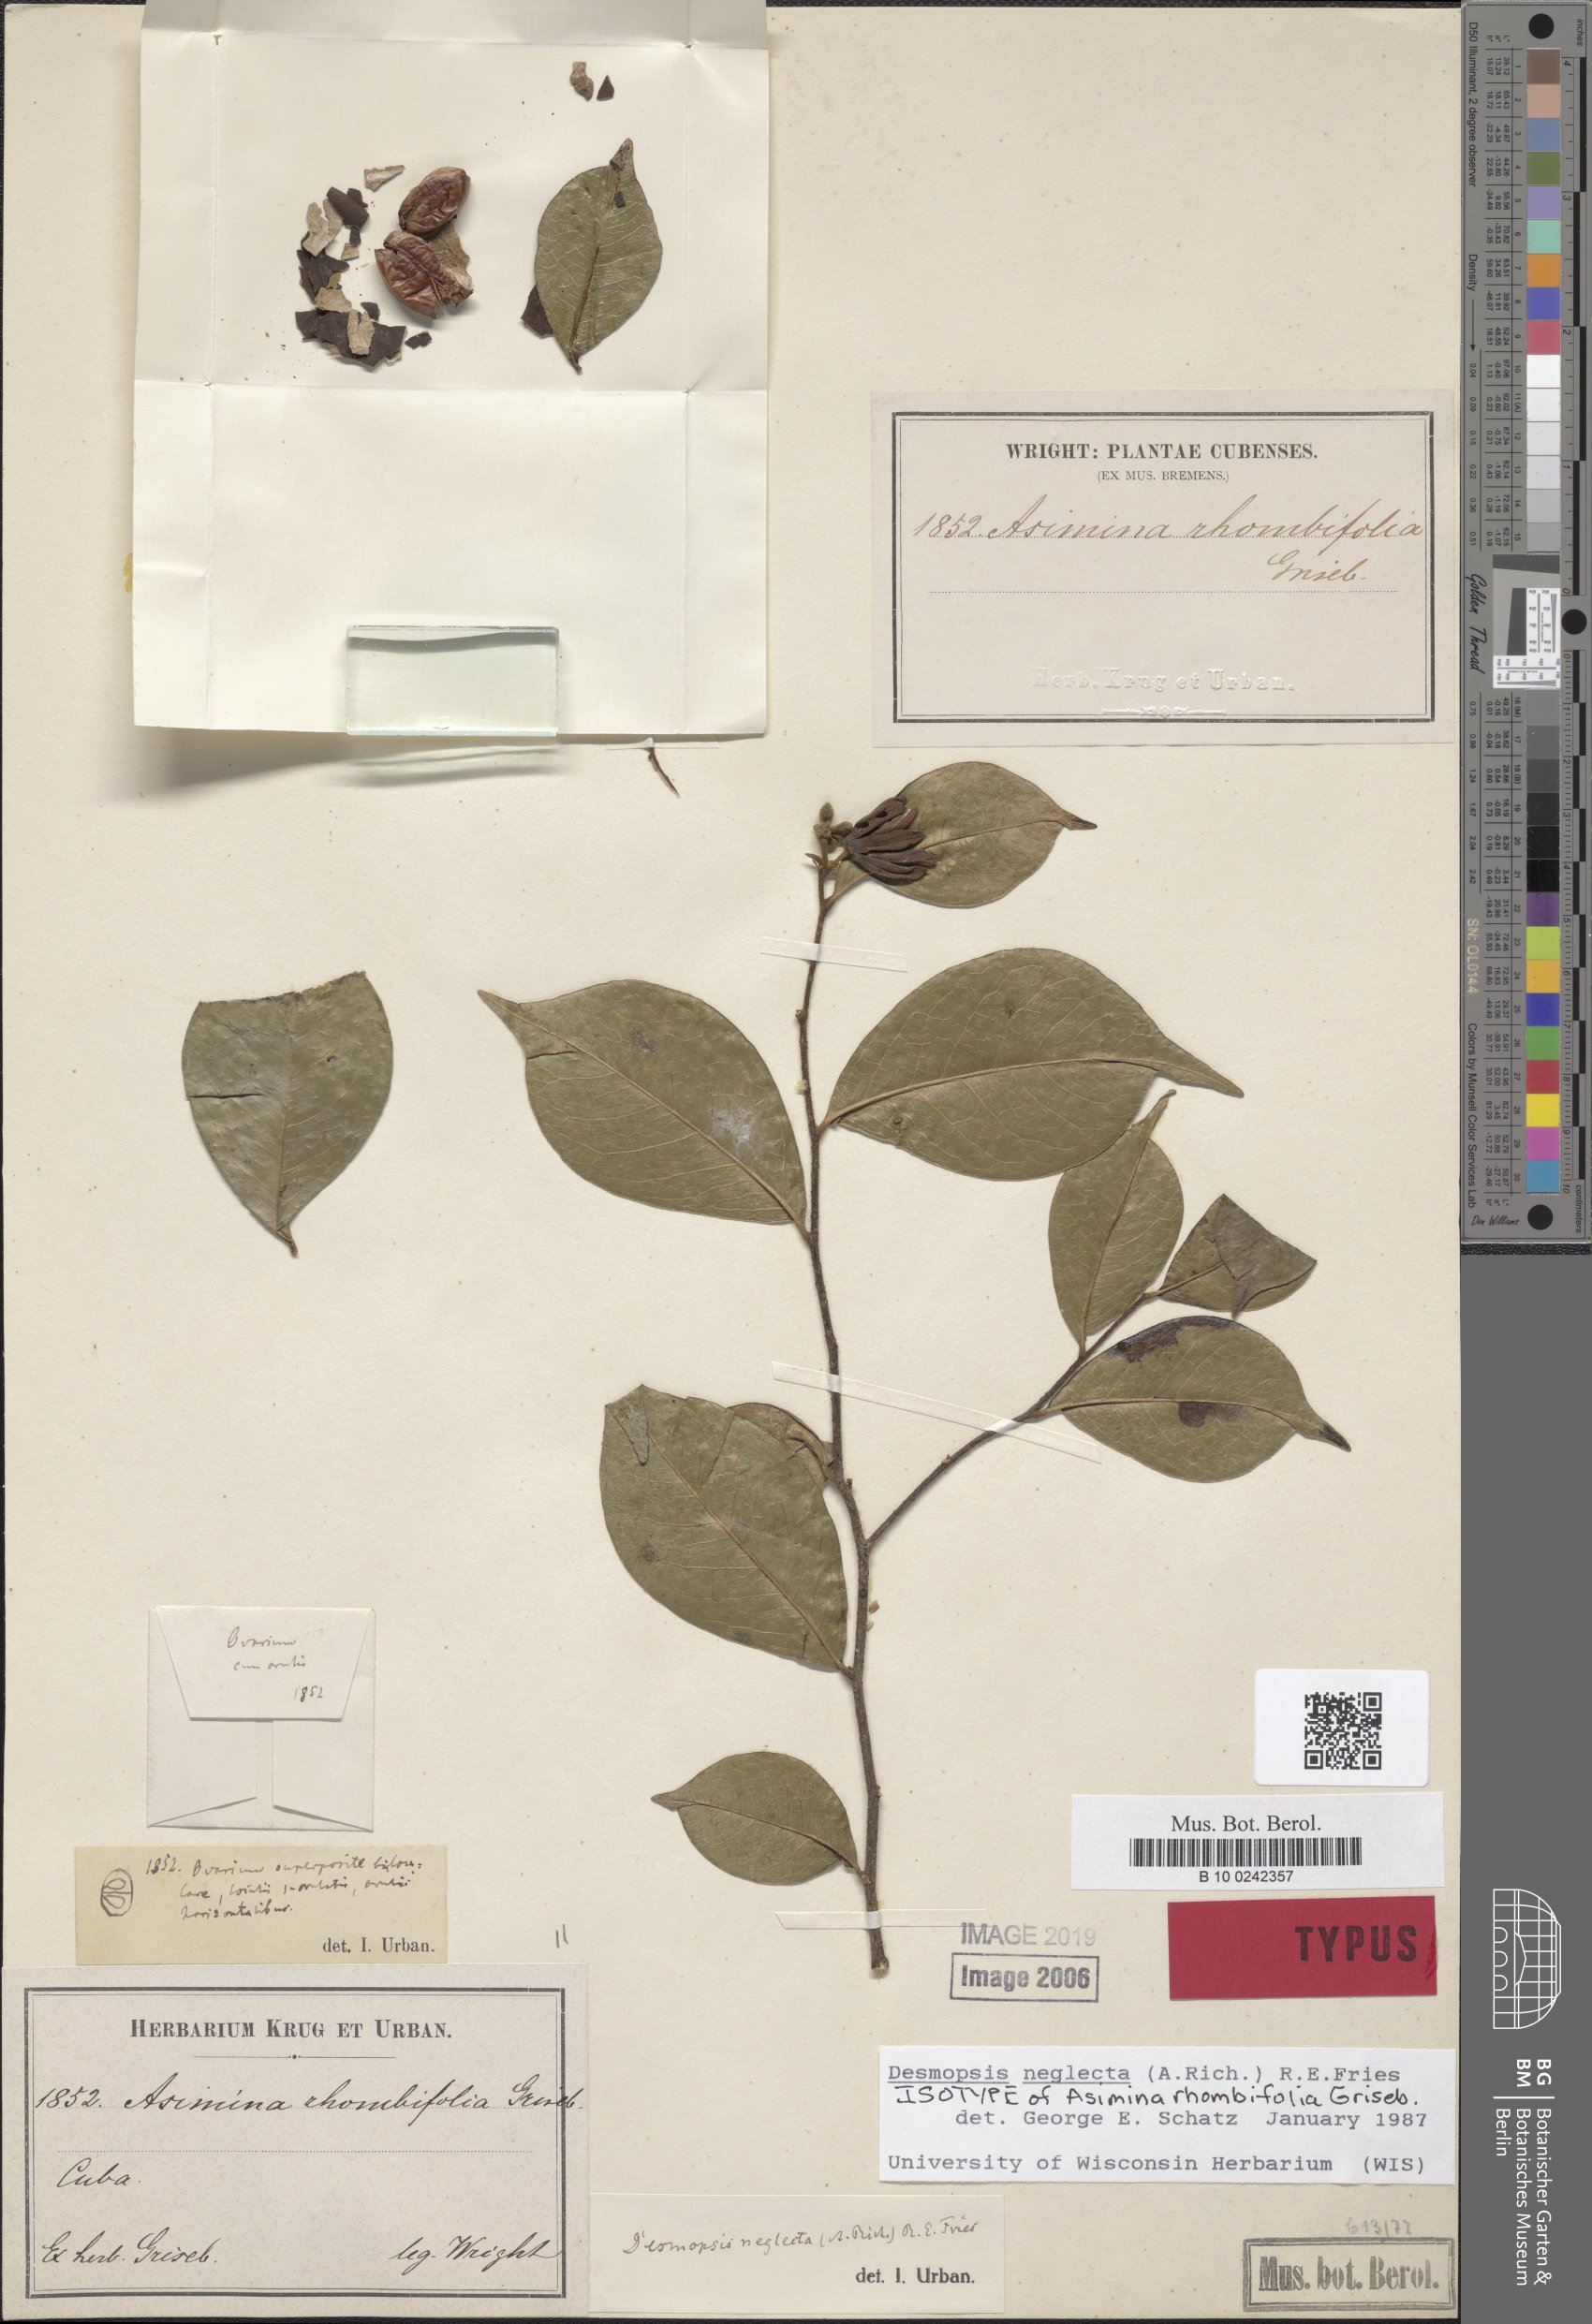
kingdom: Plantae
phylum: Tracheophyta
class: Magnoliopsida
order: Magnoliales
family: Annonaceae
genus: Desmopsis
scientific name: Desmopsis neglecta
